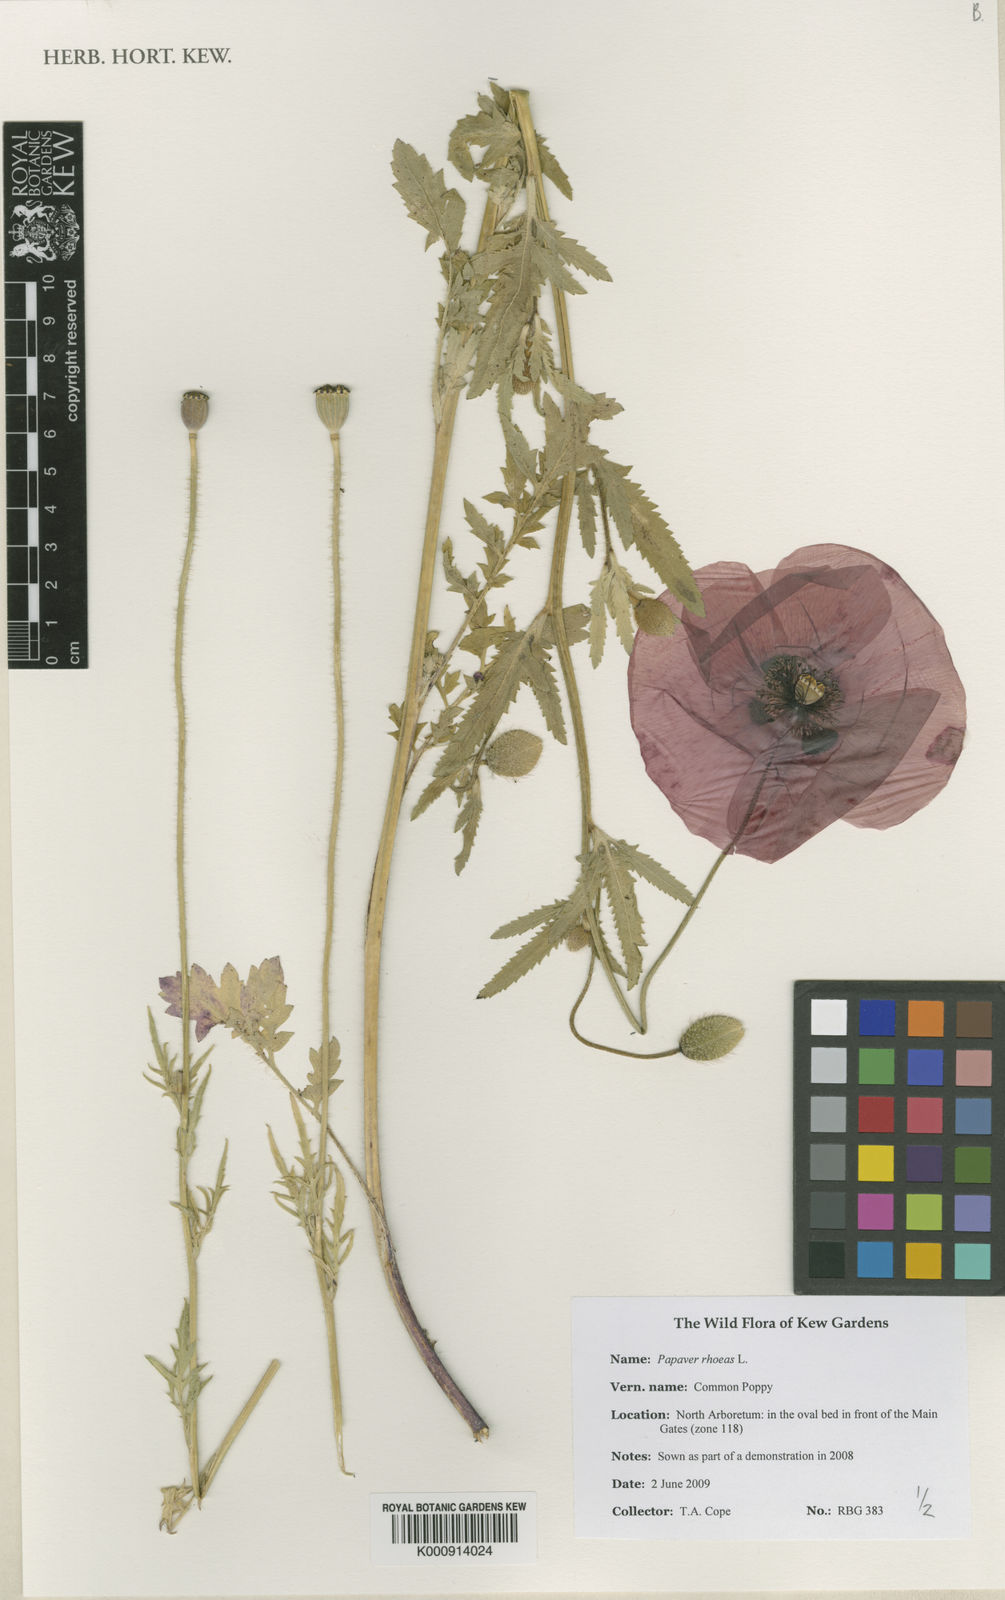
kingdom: Plantae
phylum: Tracheophyta
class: Magnoliopsida
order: Ranunculales
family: Papaveraceae
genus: Papaver
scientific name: Papaver rhoeas
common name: Corn poppy
